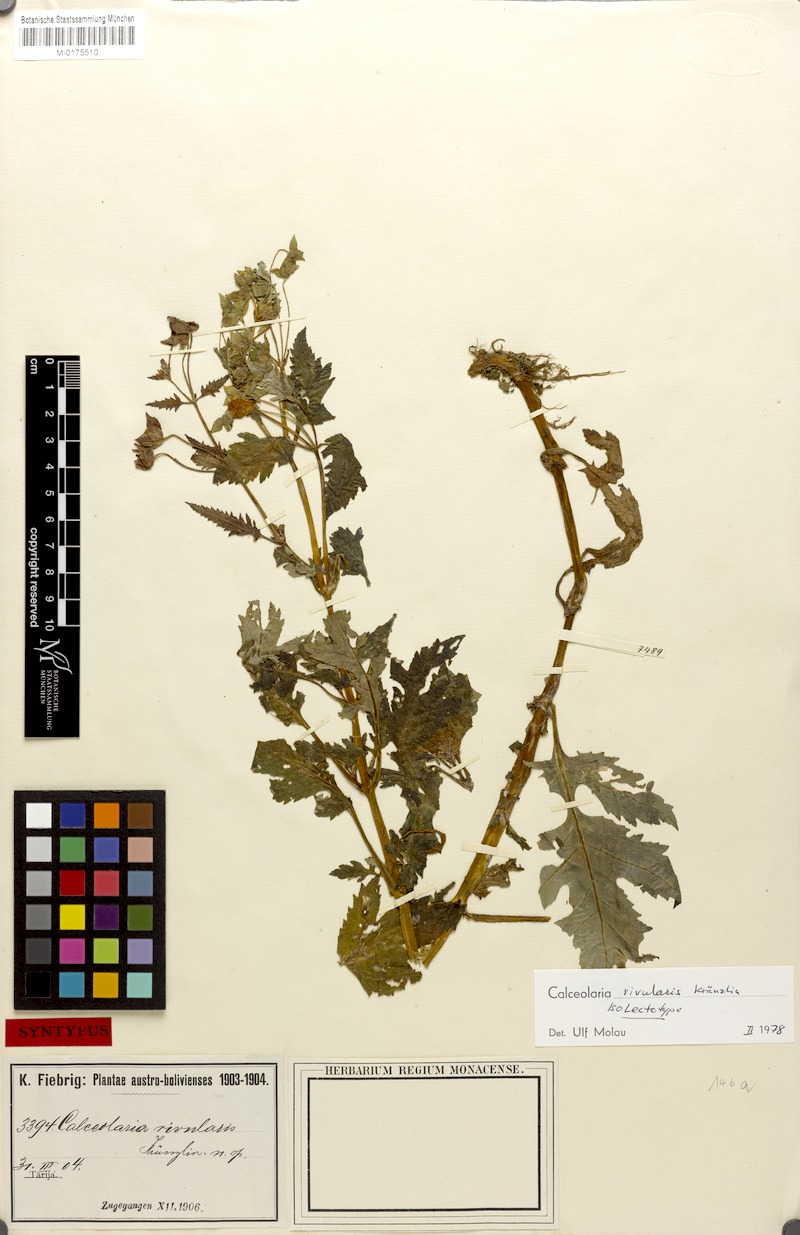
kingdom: Plantae
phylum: Tracheophyta
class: Magnoliopsida
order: Lamiales
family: Calceolariaceae
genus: Calceolaria
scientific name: Calceolaria rivularis
